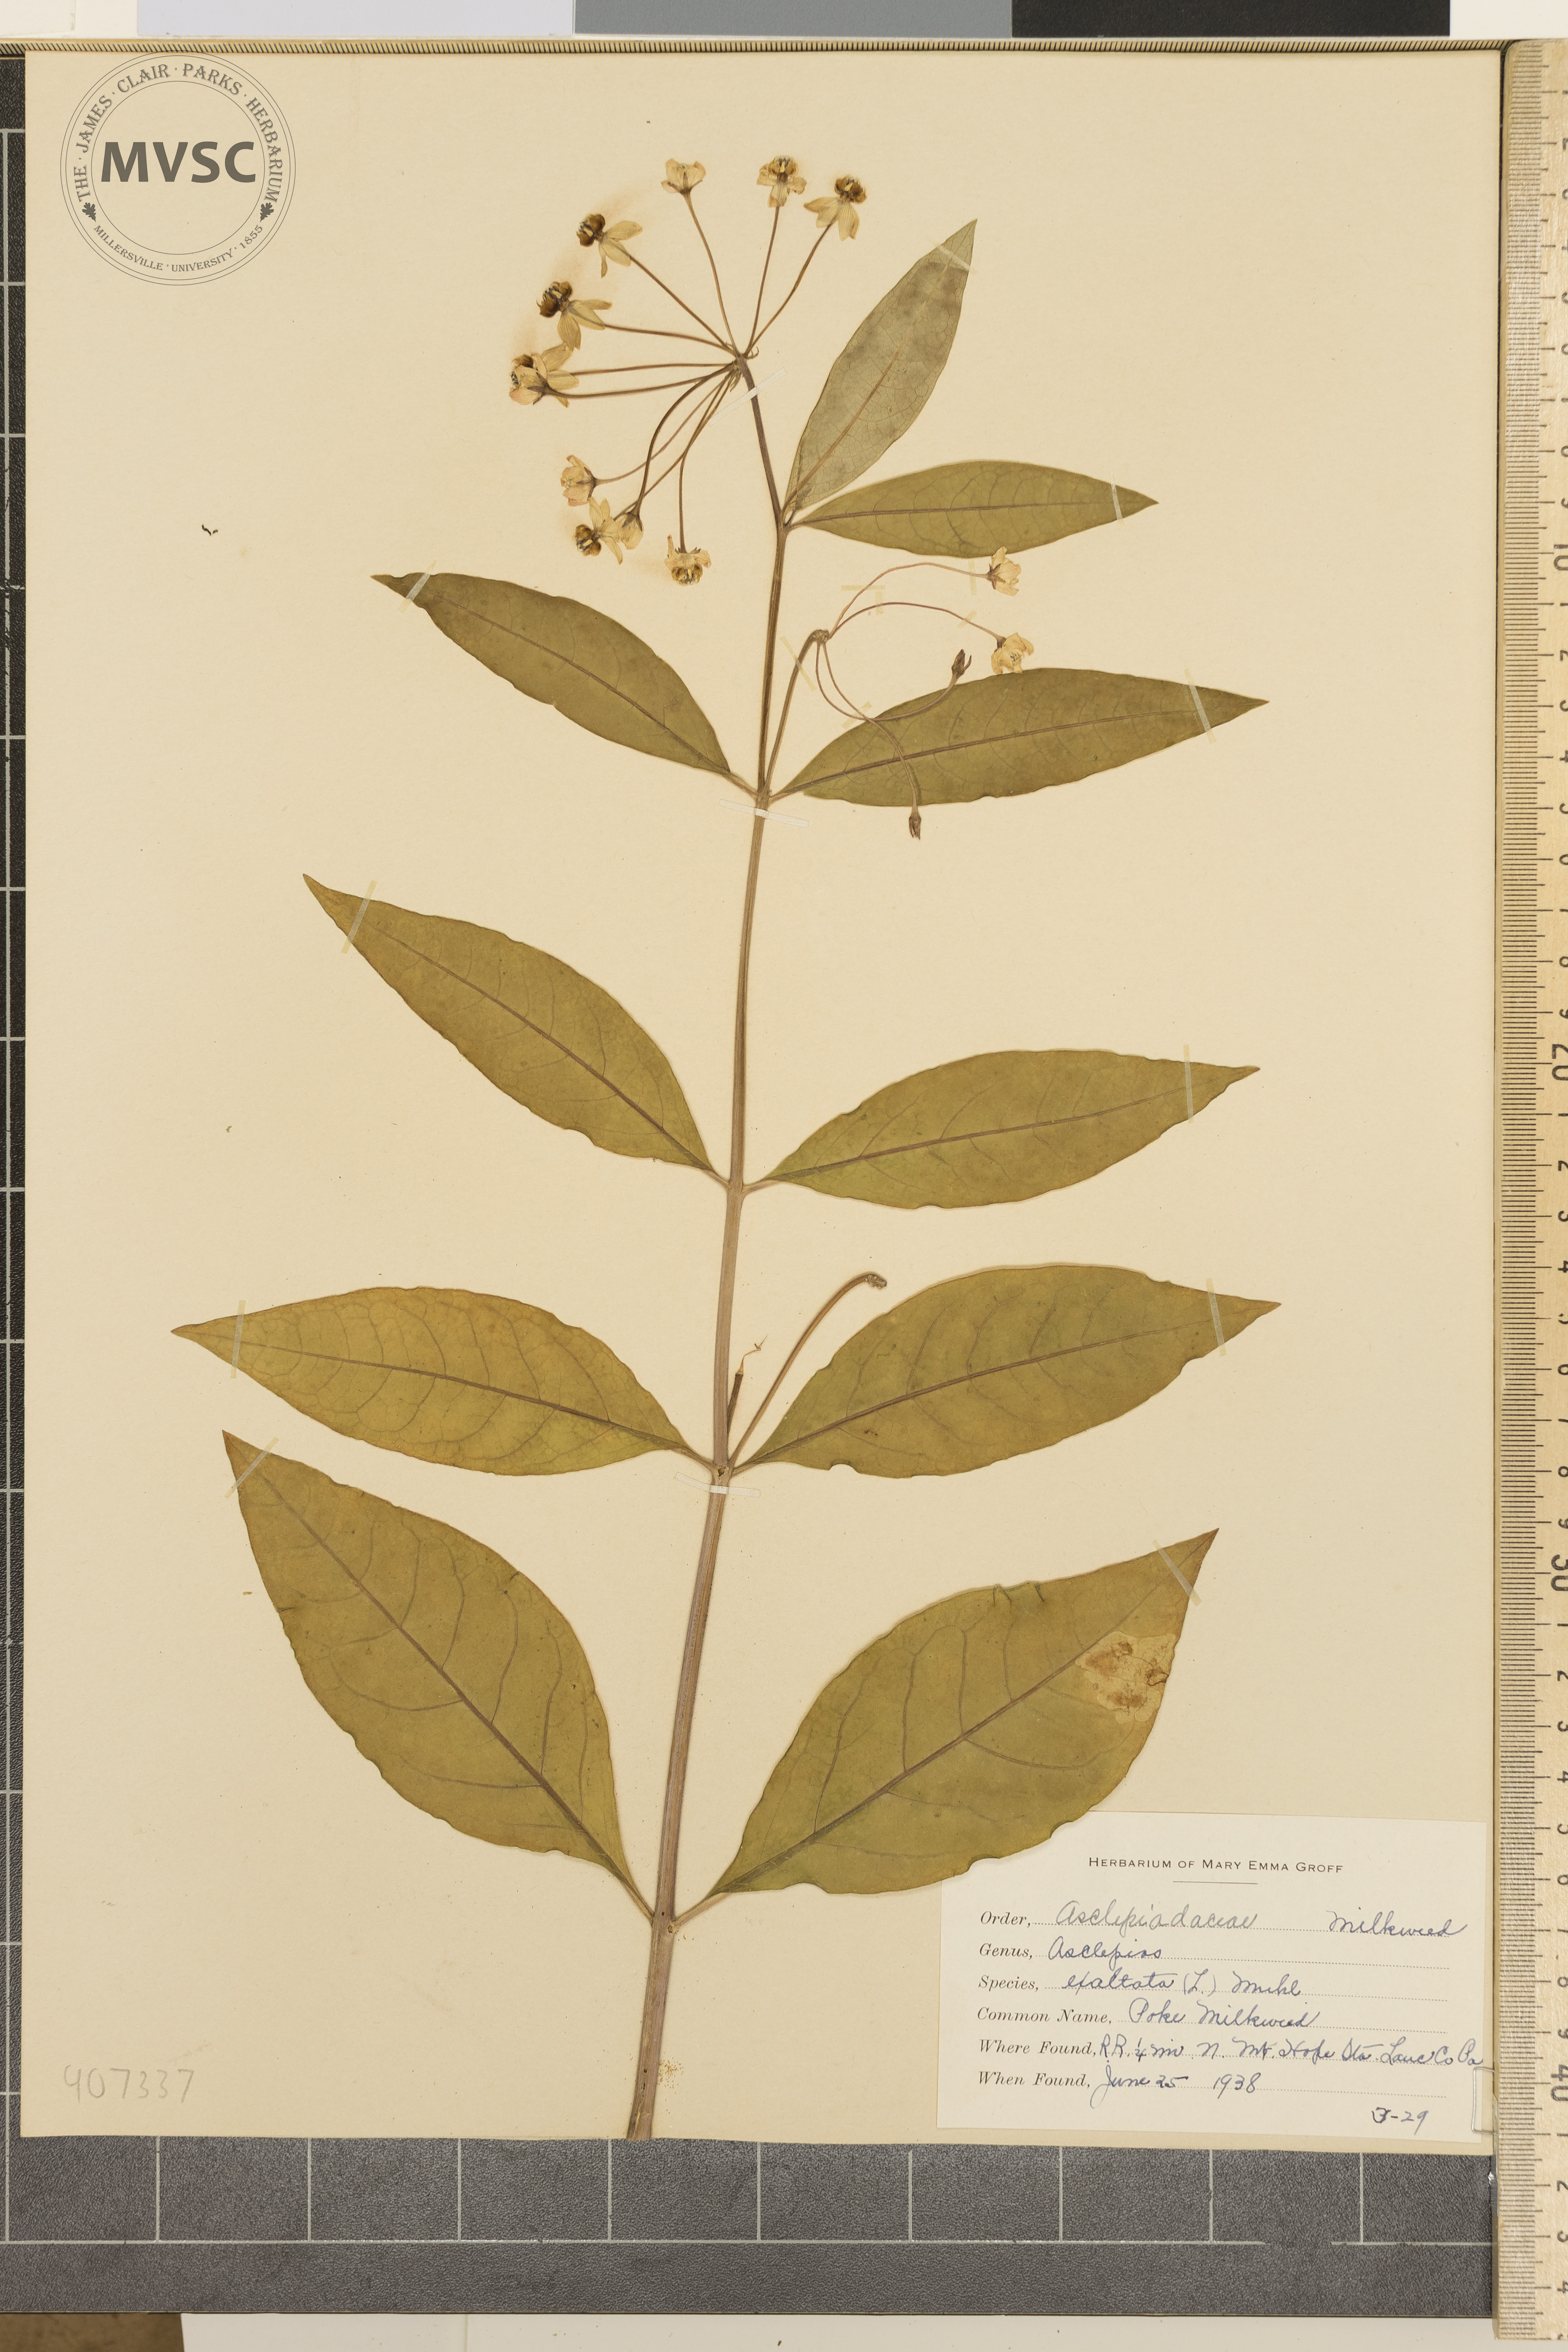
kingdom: Plantae
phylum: Tracheophyta
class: Magnoliopsida
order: Gentianales
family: Apocynaceae
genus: Asclepias
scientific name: Asclepias exaltata
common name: Poke milkweed
